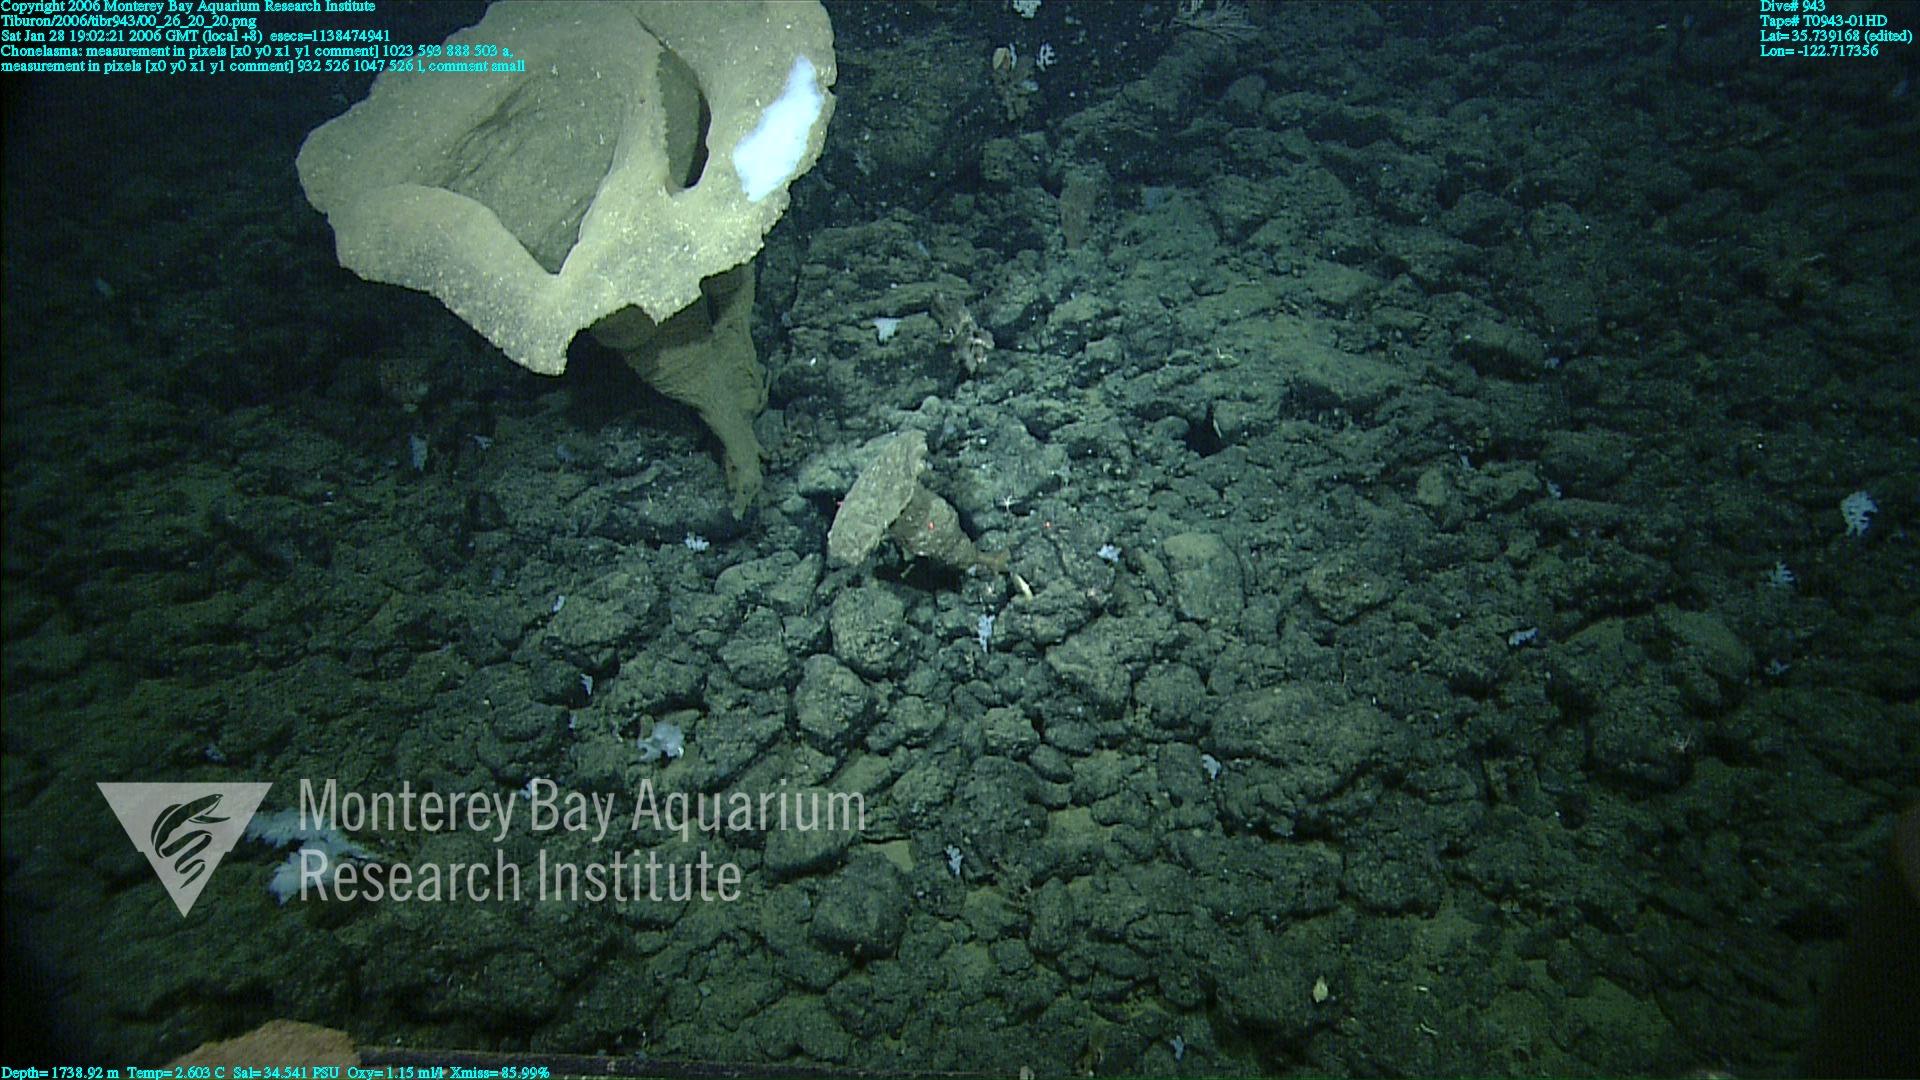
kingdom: Animalia
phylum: Porifera
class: Hexactinellida
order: Sceptrulophora
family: Euretidae
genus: Chonelasma
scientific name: Chonelasma
